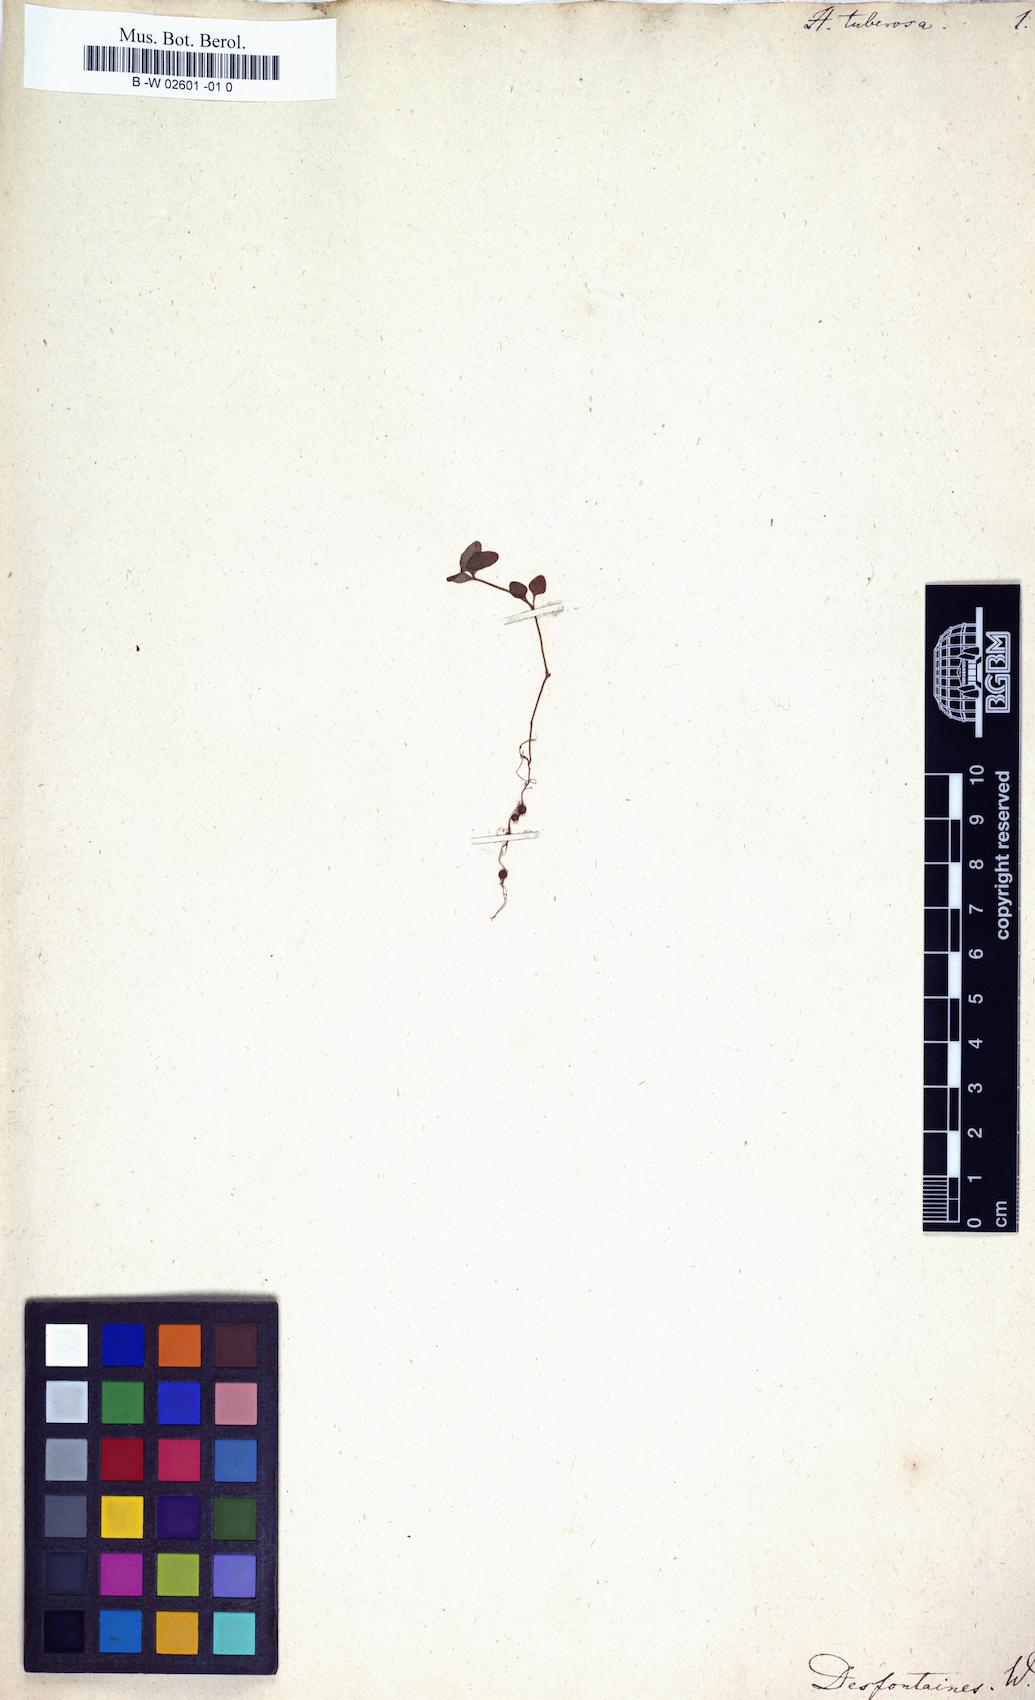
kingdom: Plantae
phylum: Tracheophyta
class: Magnoliopsida
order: Gentianales
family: Rubiaceae
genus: Lucya
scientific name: Lucya tetrandra
